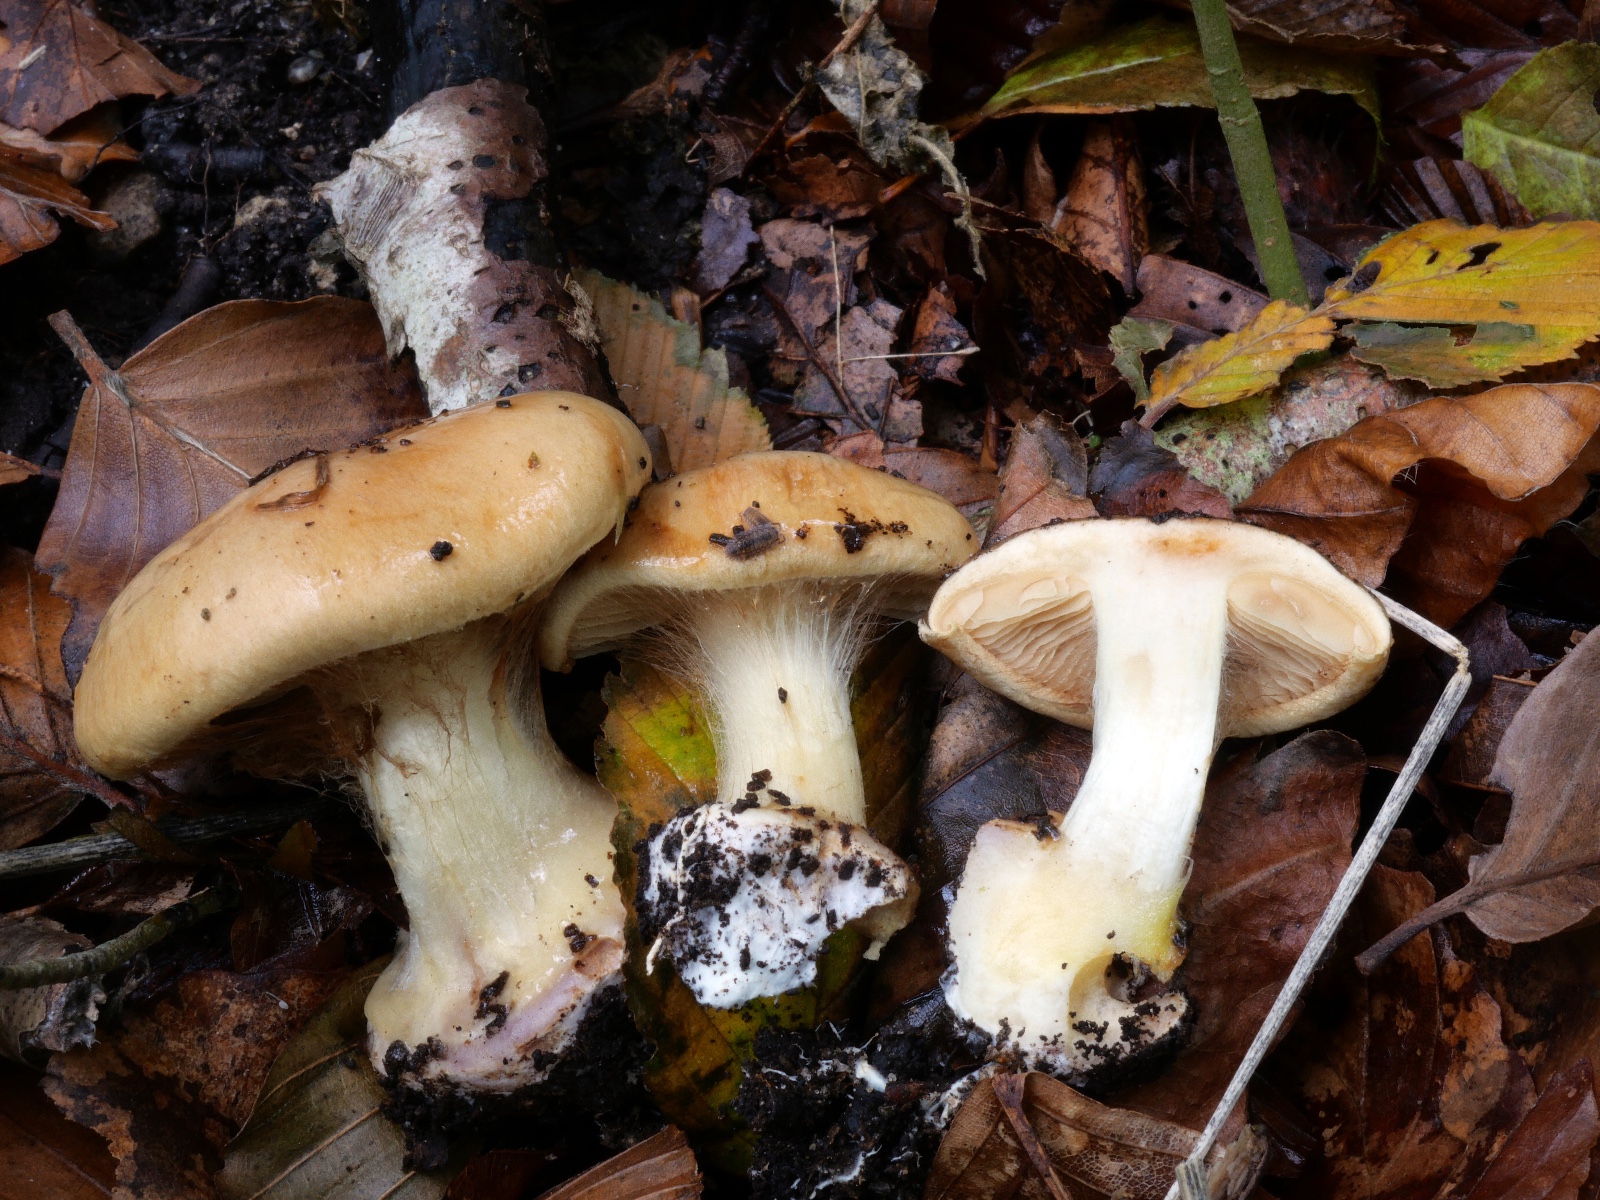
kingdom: Fungi
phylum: Basidiomycota
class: Agaricomycetes
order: Agaricales
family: Cortinariaceae
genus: Calonarius
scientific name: Calonarius humolens
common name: radise-slørhat
